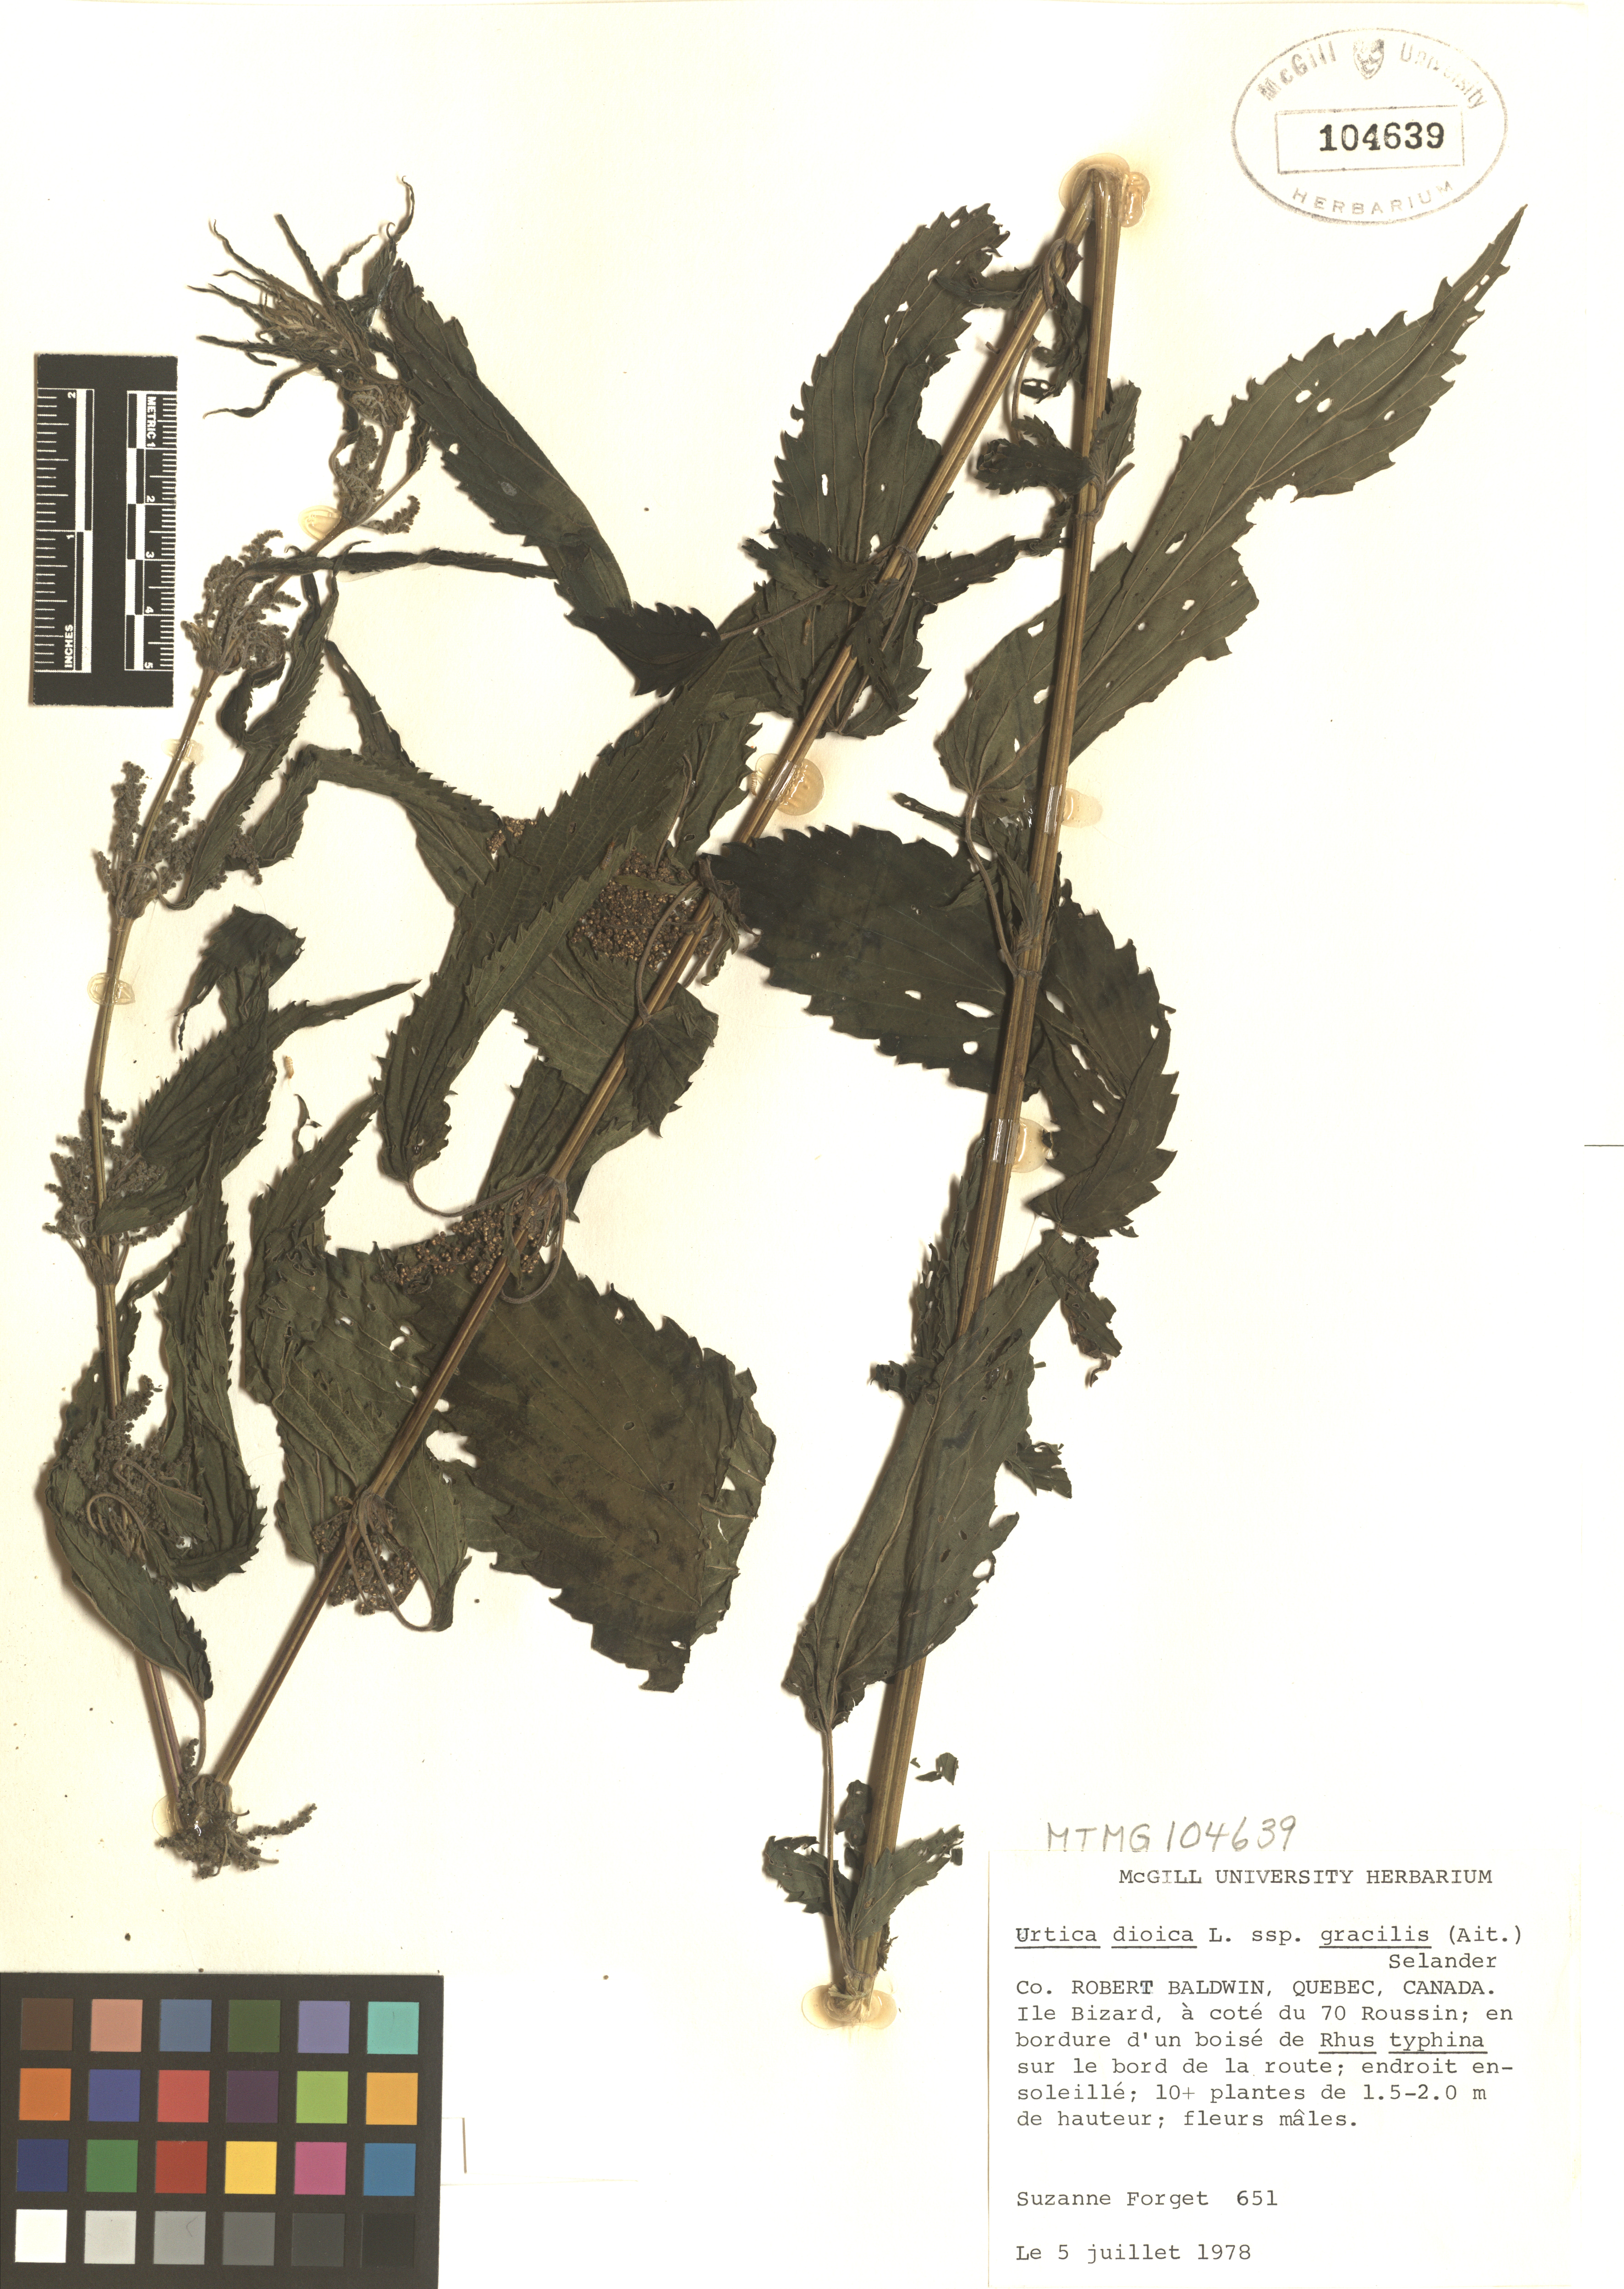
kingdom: Plantae
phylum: Tracheophyta
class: Magnoliopsida
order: Rosales
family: Urticaceae
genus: Urtica
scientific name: Urtica gracilis
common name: Slender stinging nettle
